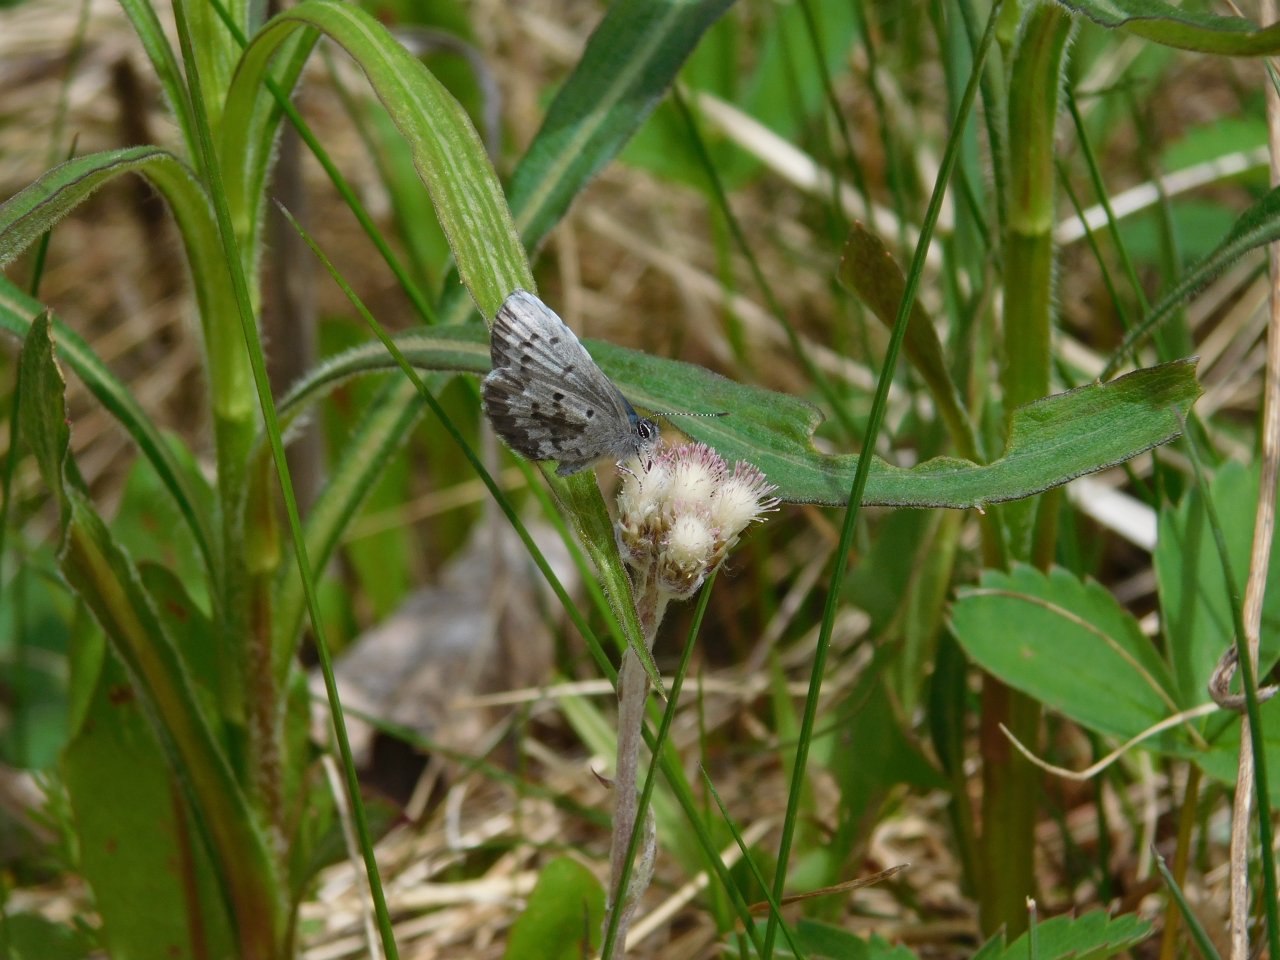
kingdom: Animalia
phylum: Arthropoda
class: Insecta
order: Lepidoptera
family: Lycaenidae
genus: Celastrina
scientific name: Celastrina lucia
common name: Northern Spring Azure
